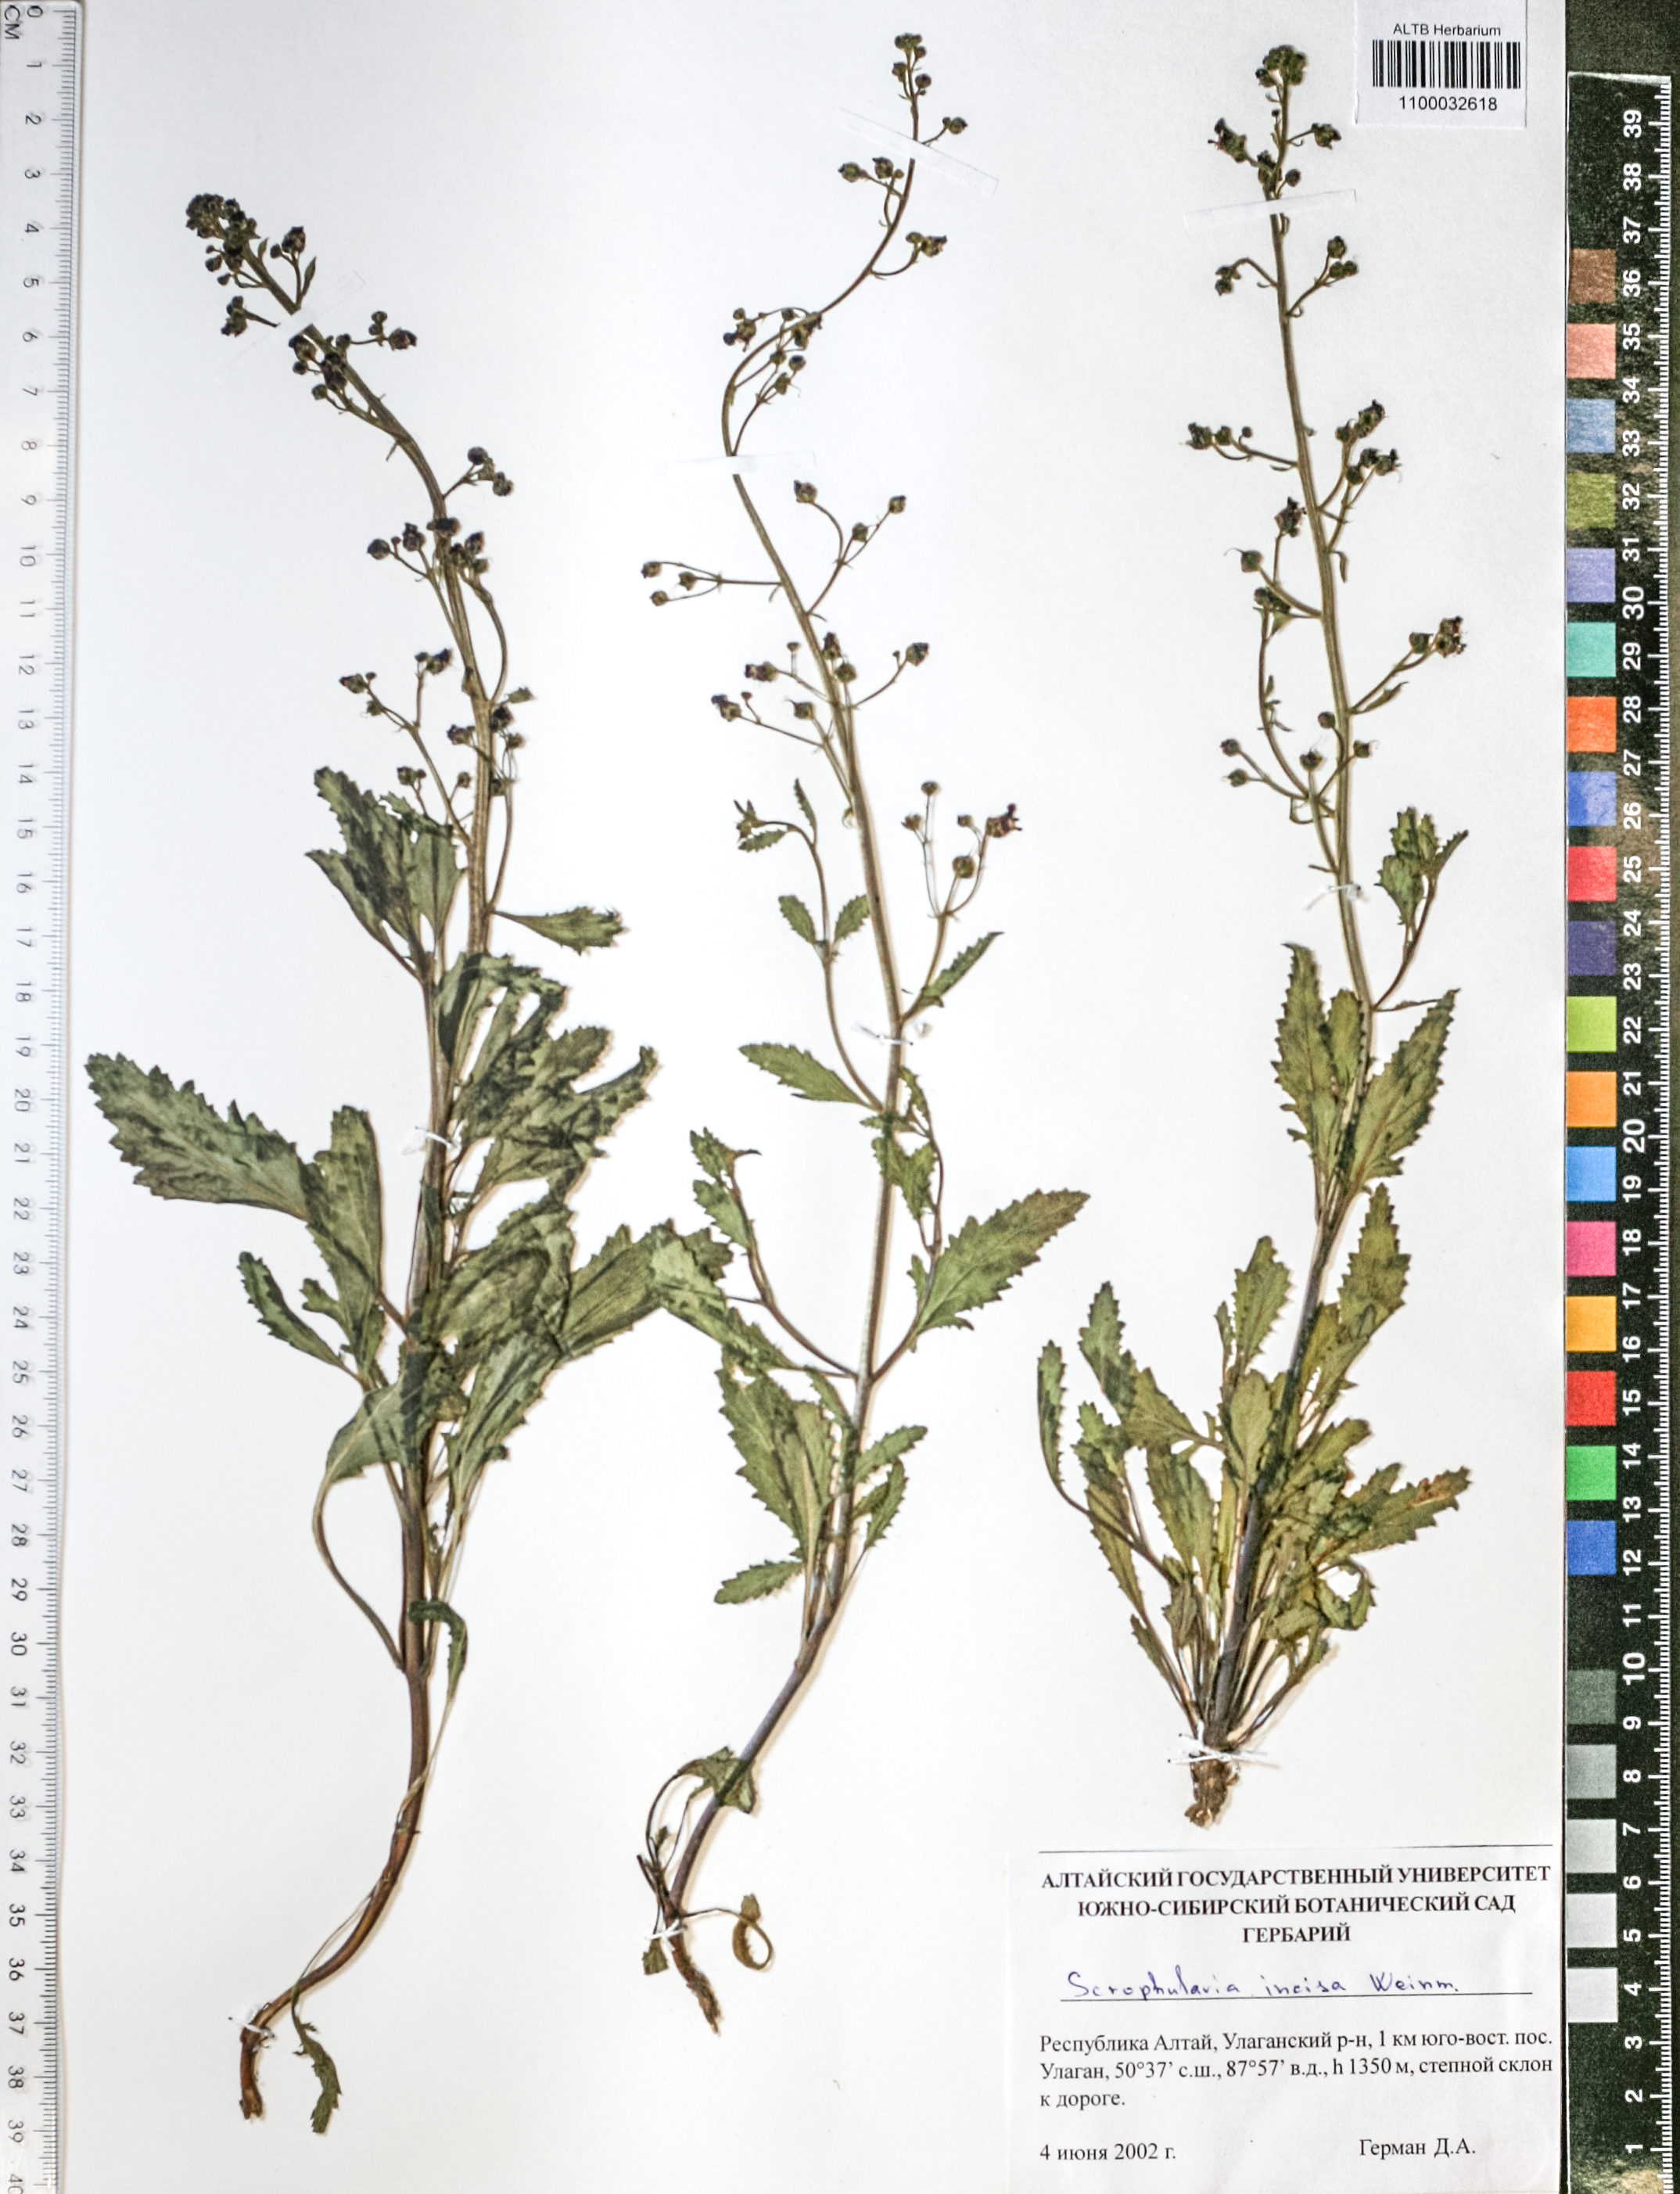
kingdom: Plantae
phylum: Tracheophyta
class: Magnoliopsida
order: Lamiales
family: Scrophulariaceae
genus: Scrophularia
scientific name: Scrophularia incisa
